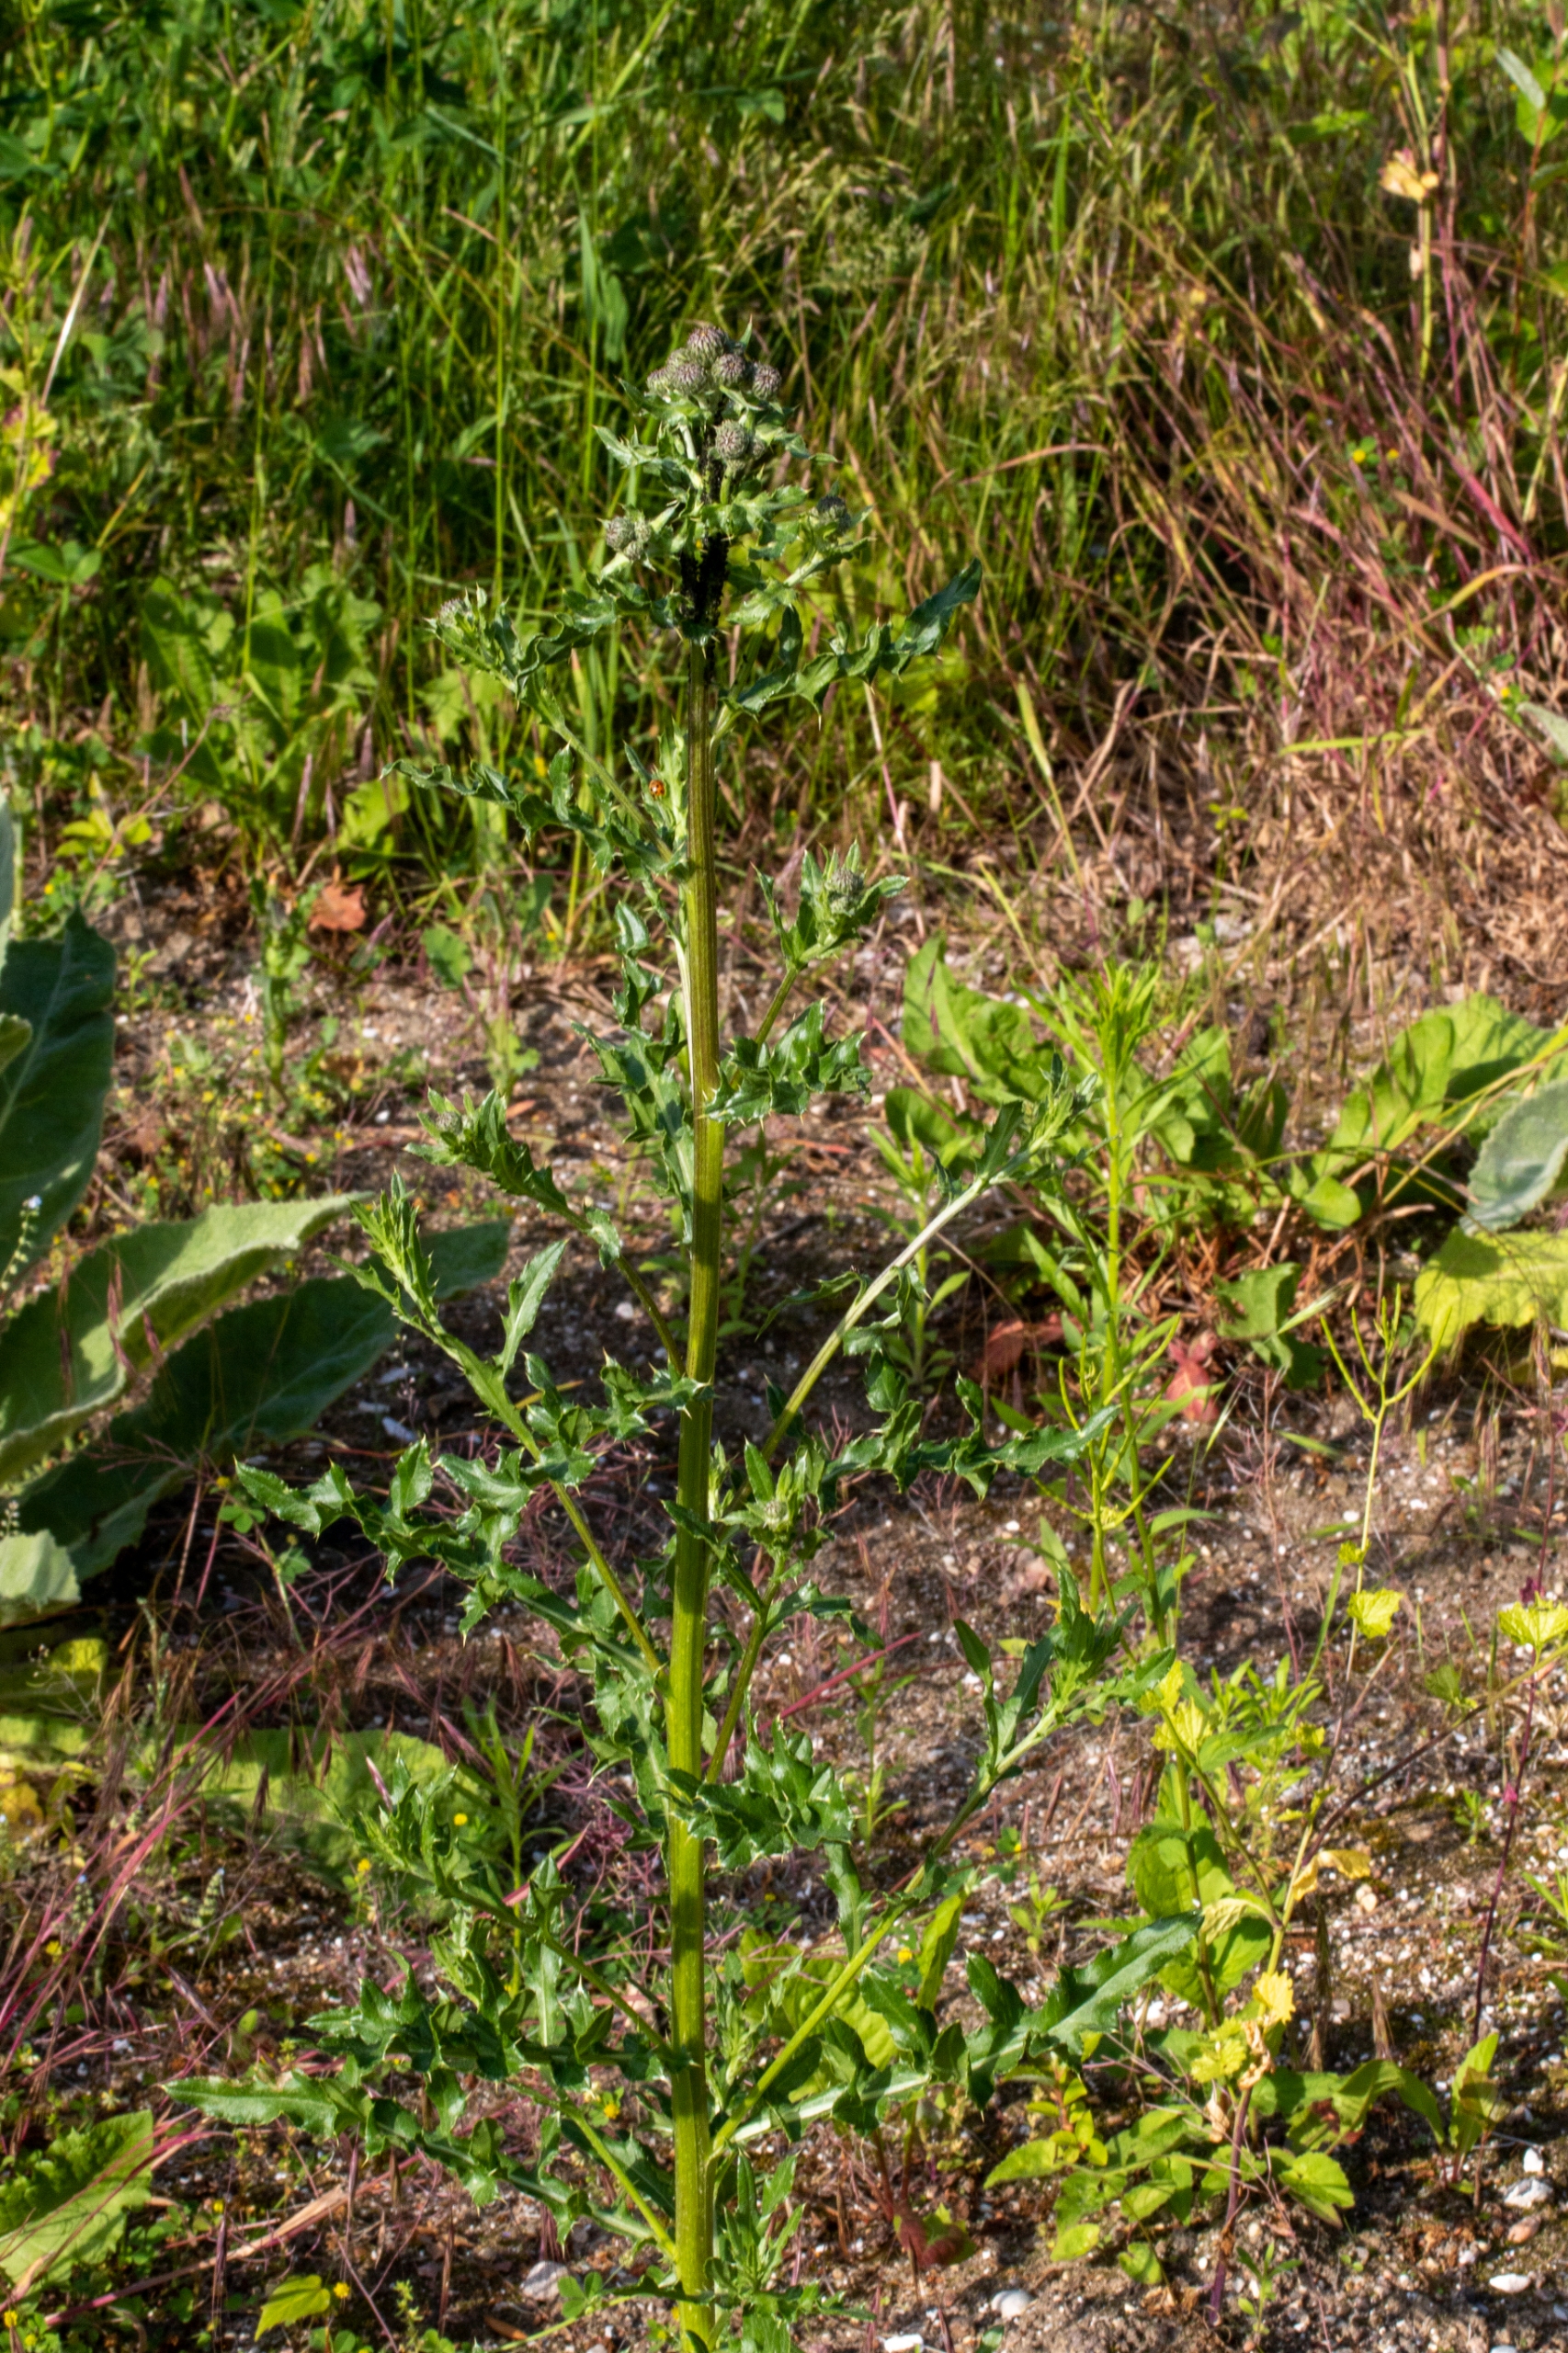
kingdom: Plantae
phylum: Tracheophyta
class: Magnoliopsida
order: Asterales
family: Asteraceae
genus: Cirsium
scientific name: Cirsium arvense
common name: Ager-tidsel
